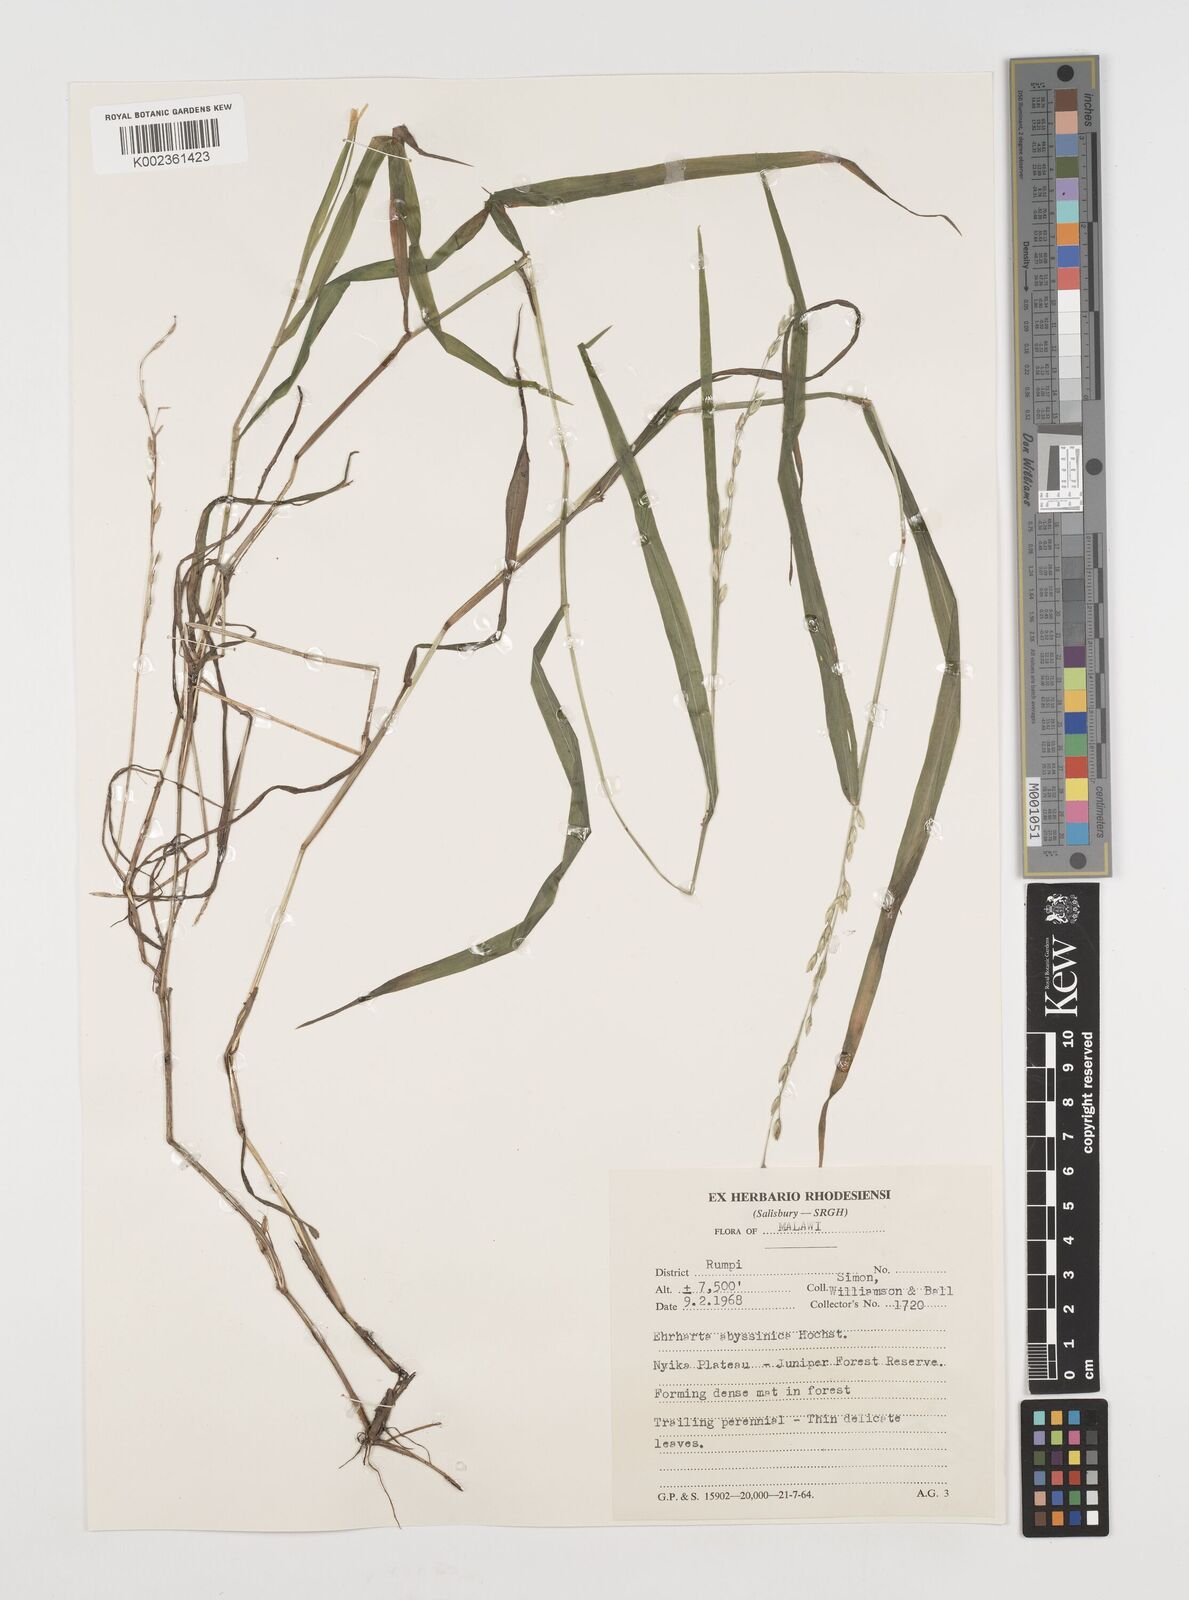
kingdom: Plantae
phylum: Tracheophyta
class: Liliopsida
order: Poales
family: Poaceae
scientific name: Poaceae
